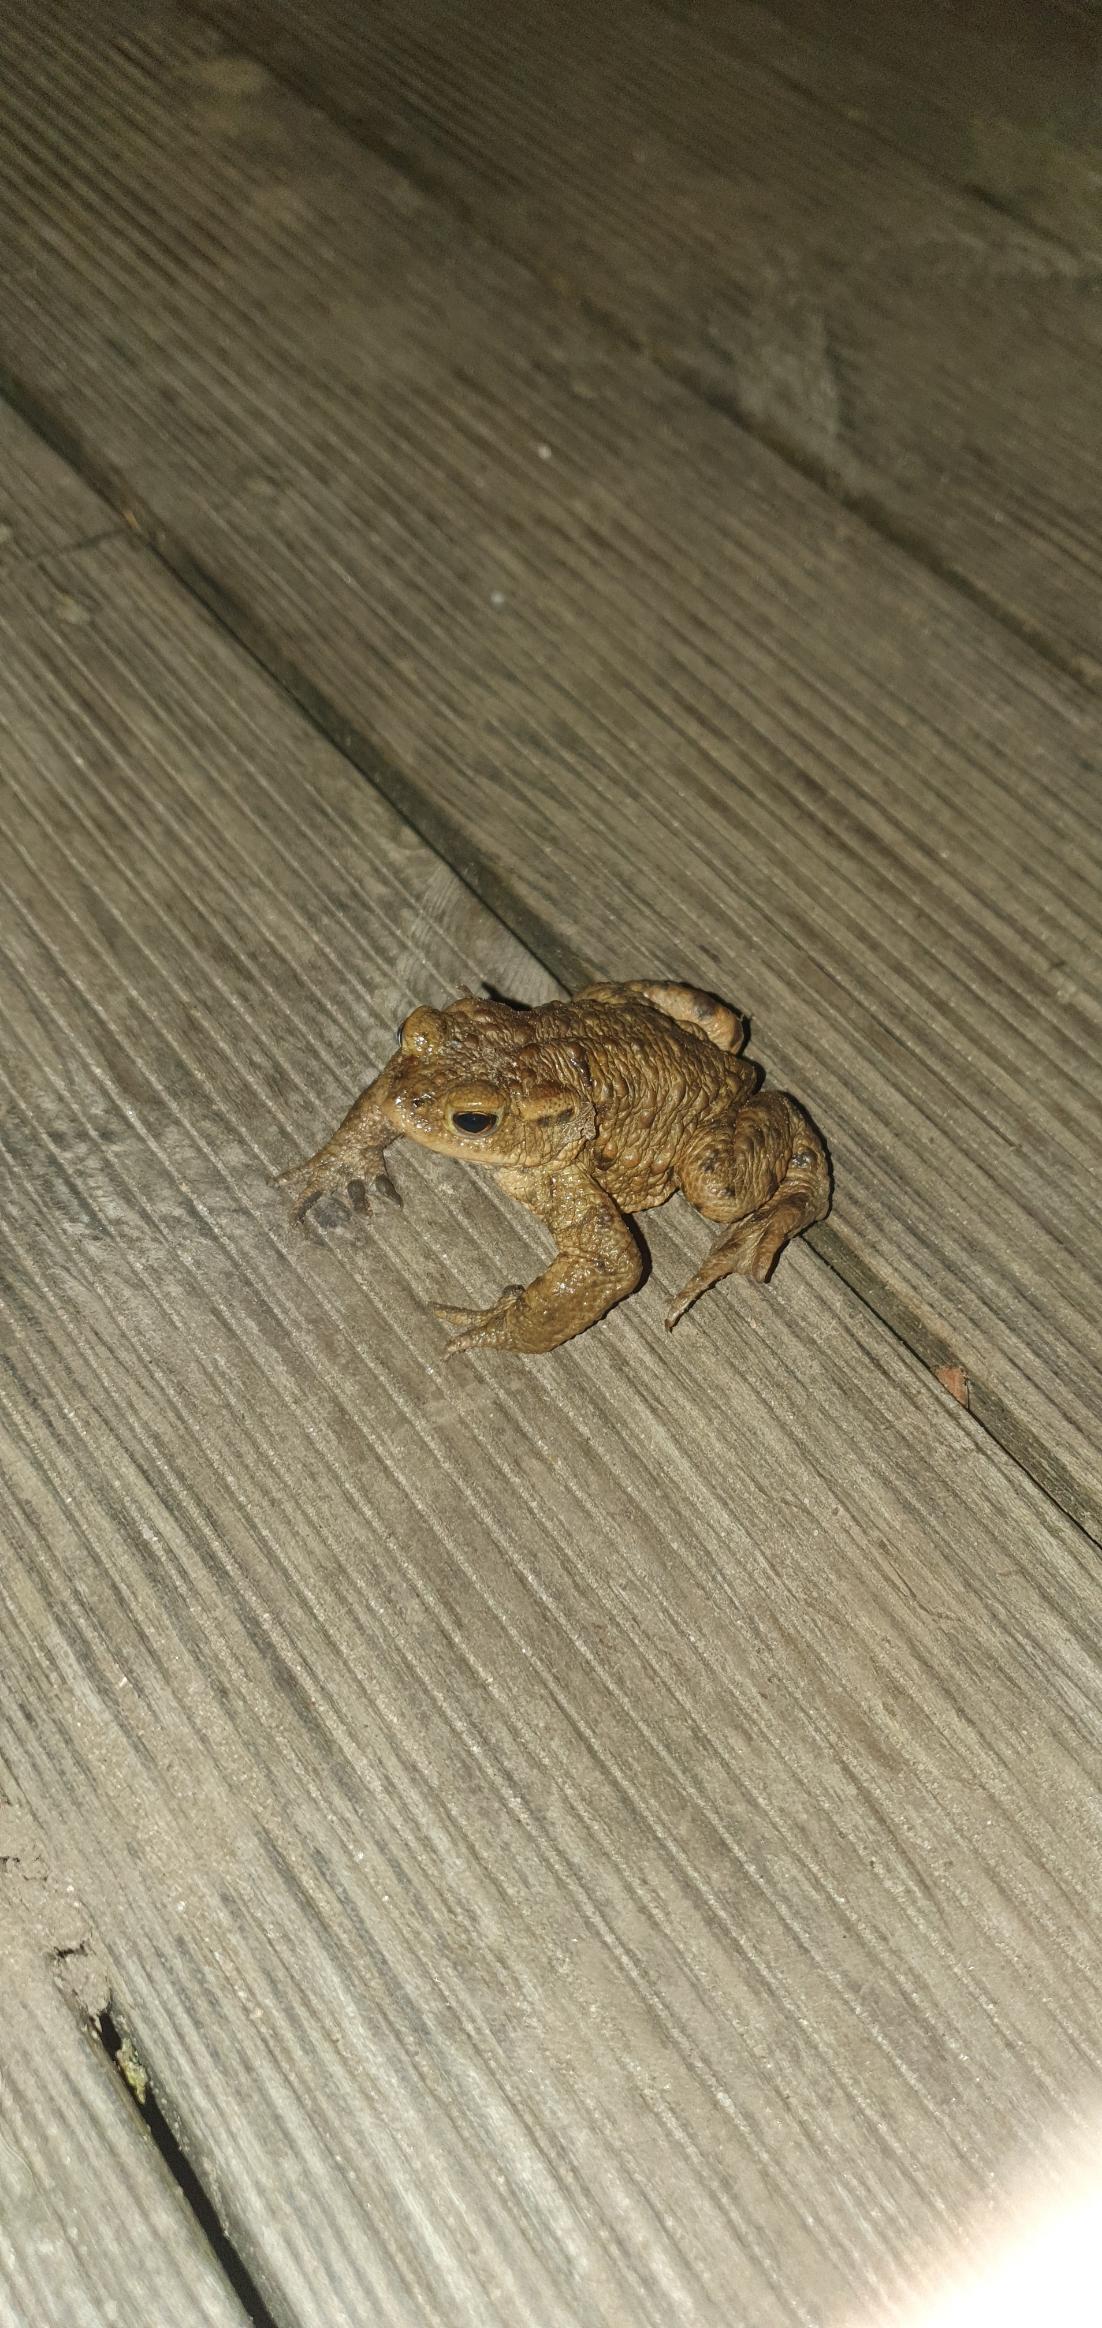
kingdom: Animalia
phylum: Chordata
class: Amphibia
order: Anura
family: Bufonidae
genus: Bufo
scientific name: Bufo bufo
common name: Skrubtudse
